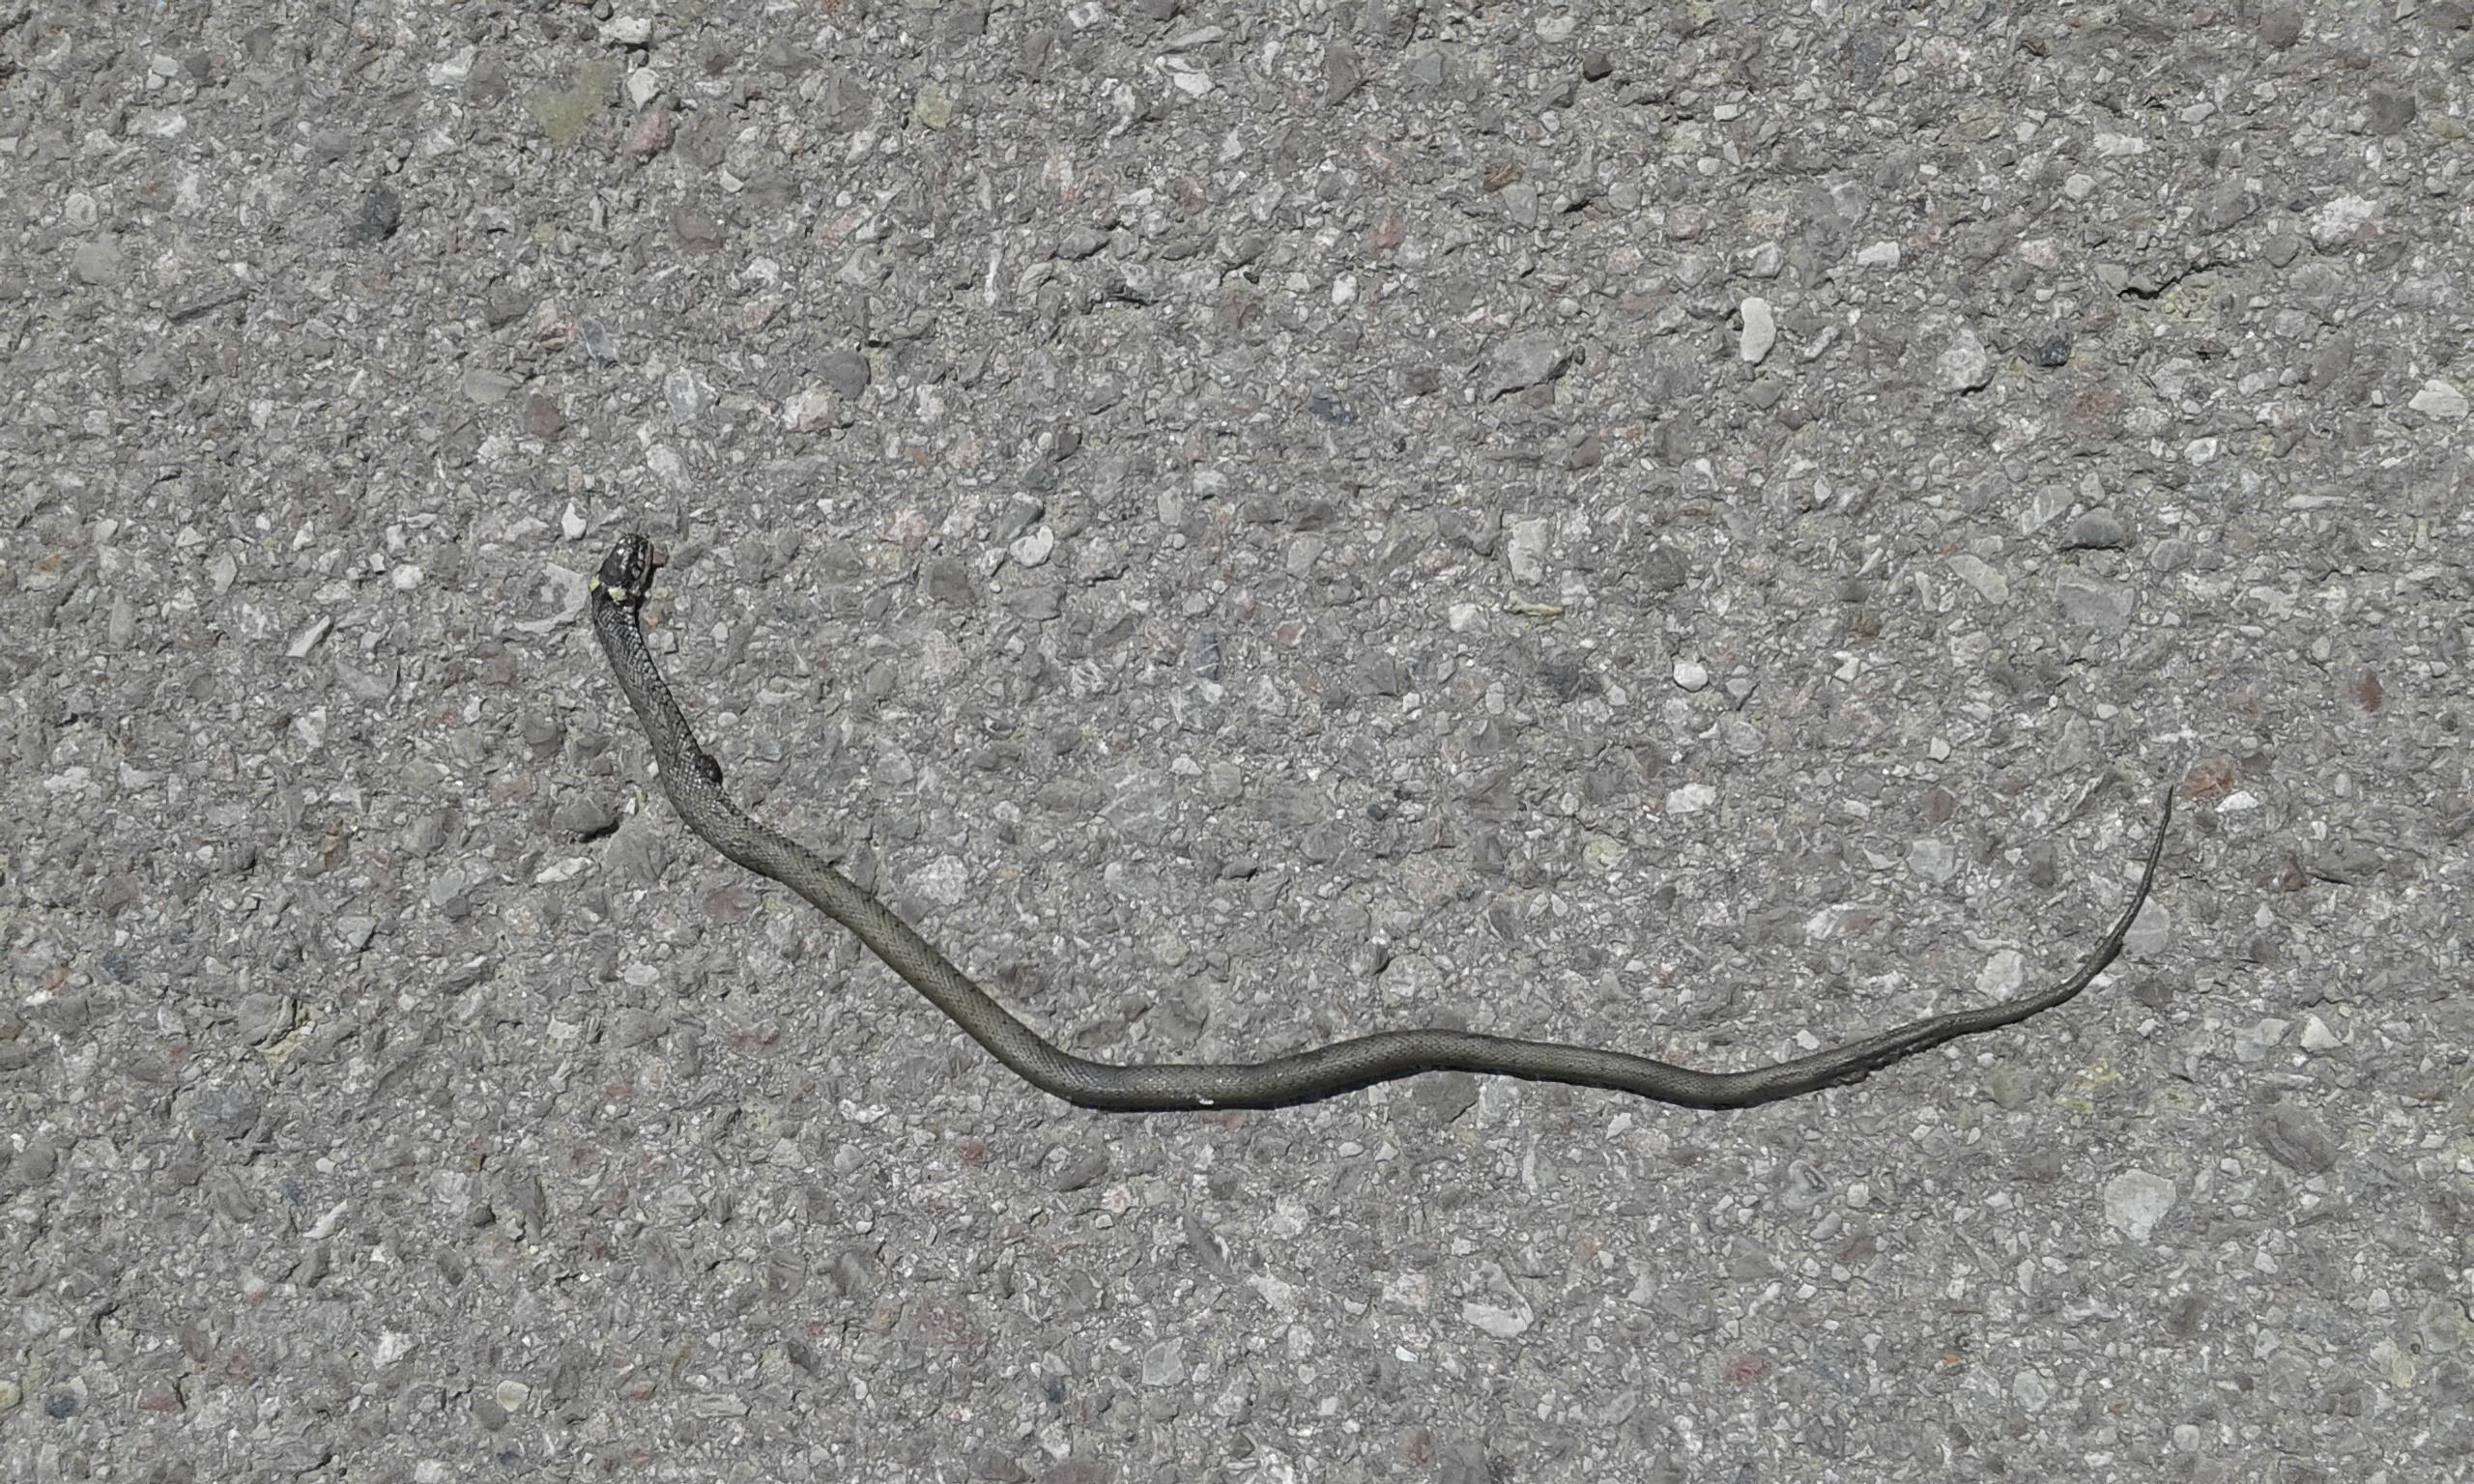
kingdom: Animalia
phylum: Chordata
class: Squamata
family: Colubridae
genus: Natrix
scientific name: Natrix natrix
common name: Grass snake
